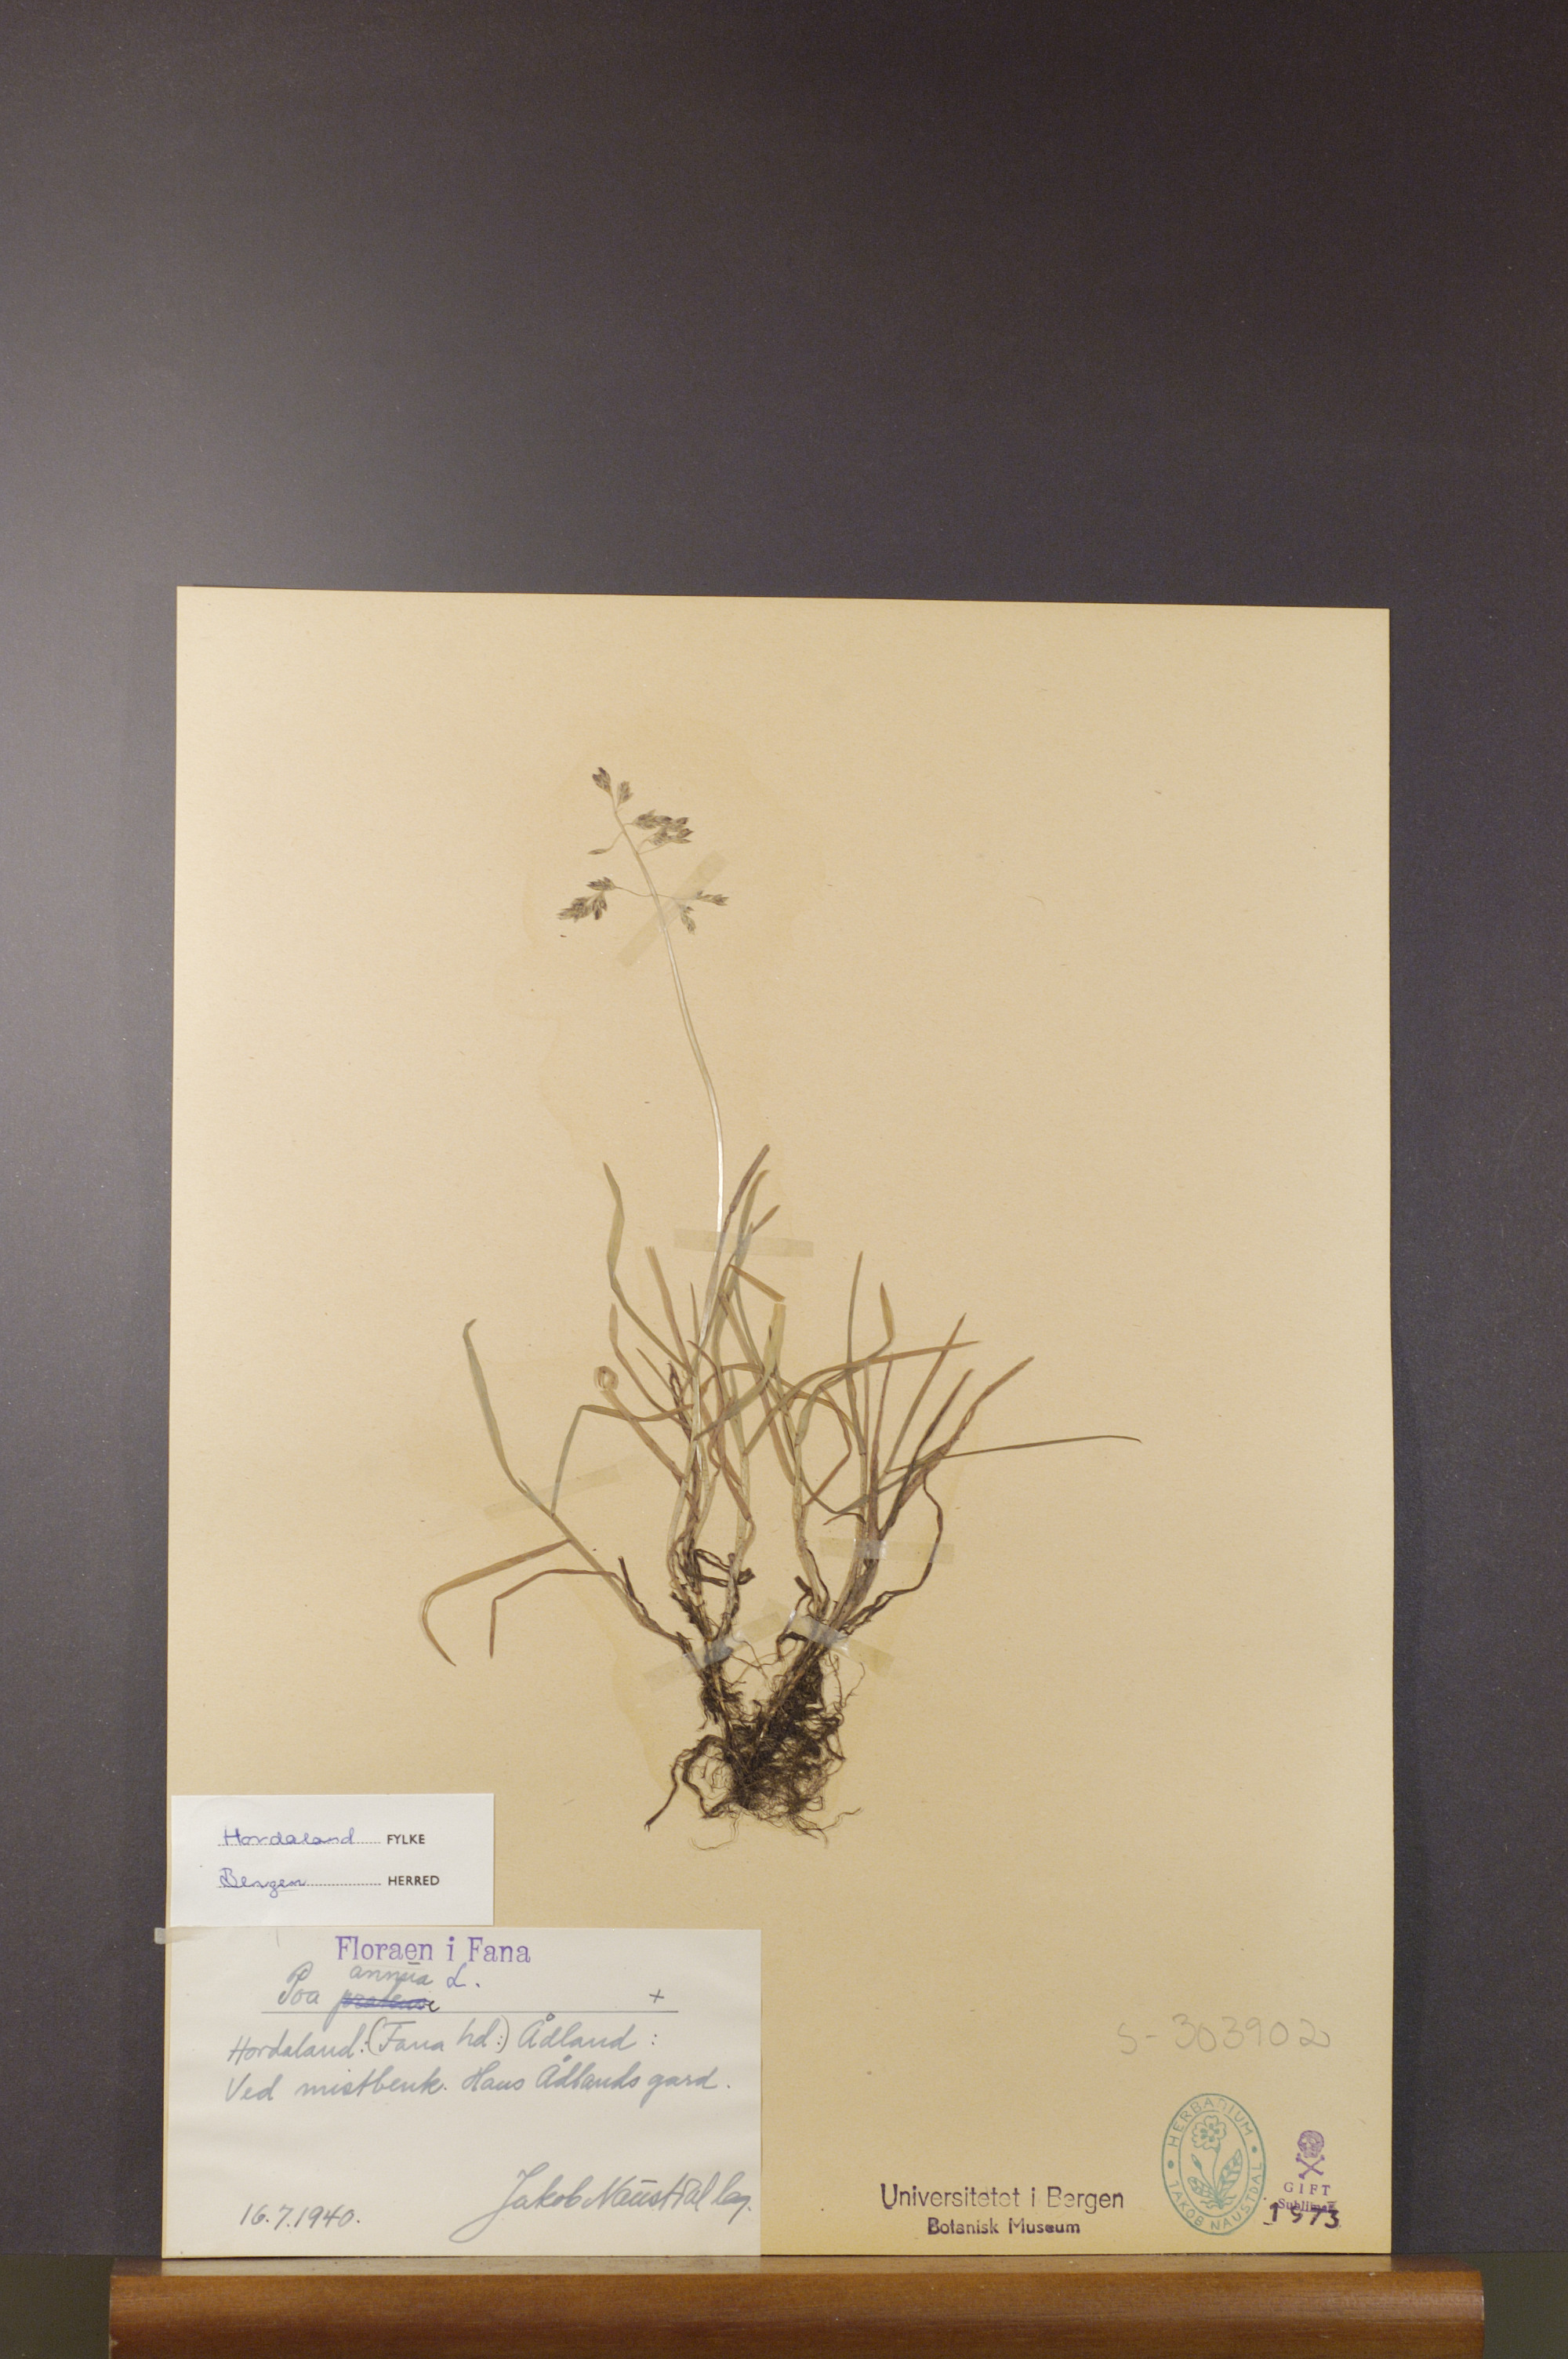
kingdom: Plantae
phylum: Tracheophyta
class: Liliopsida
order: Poales
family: Poaceae
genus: Poa
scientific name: Poa annua
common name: Annual bluegrass
